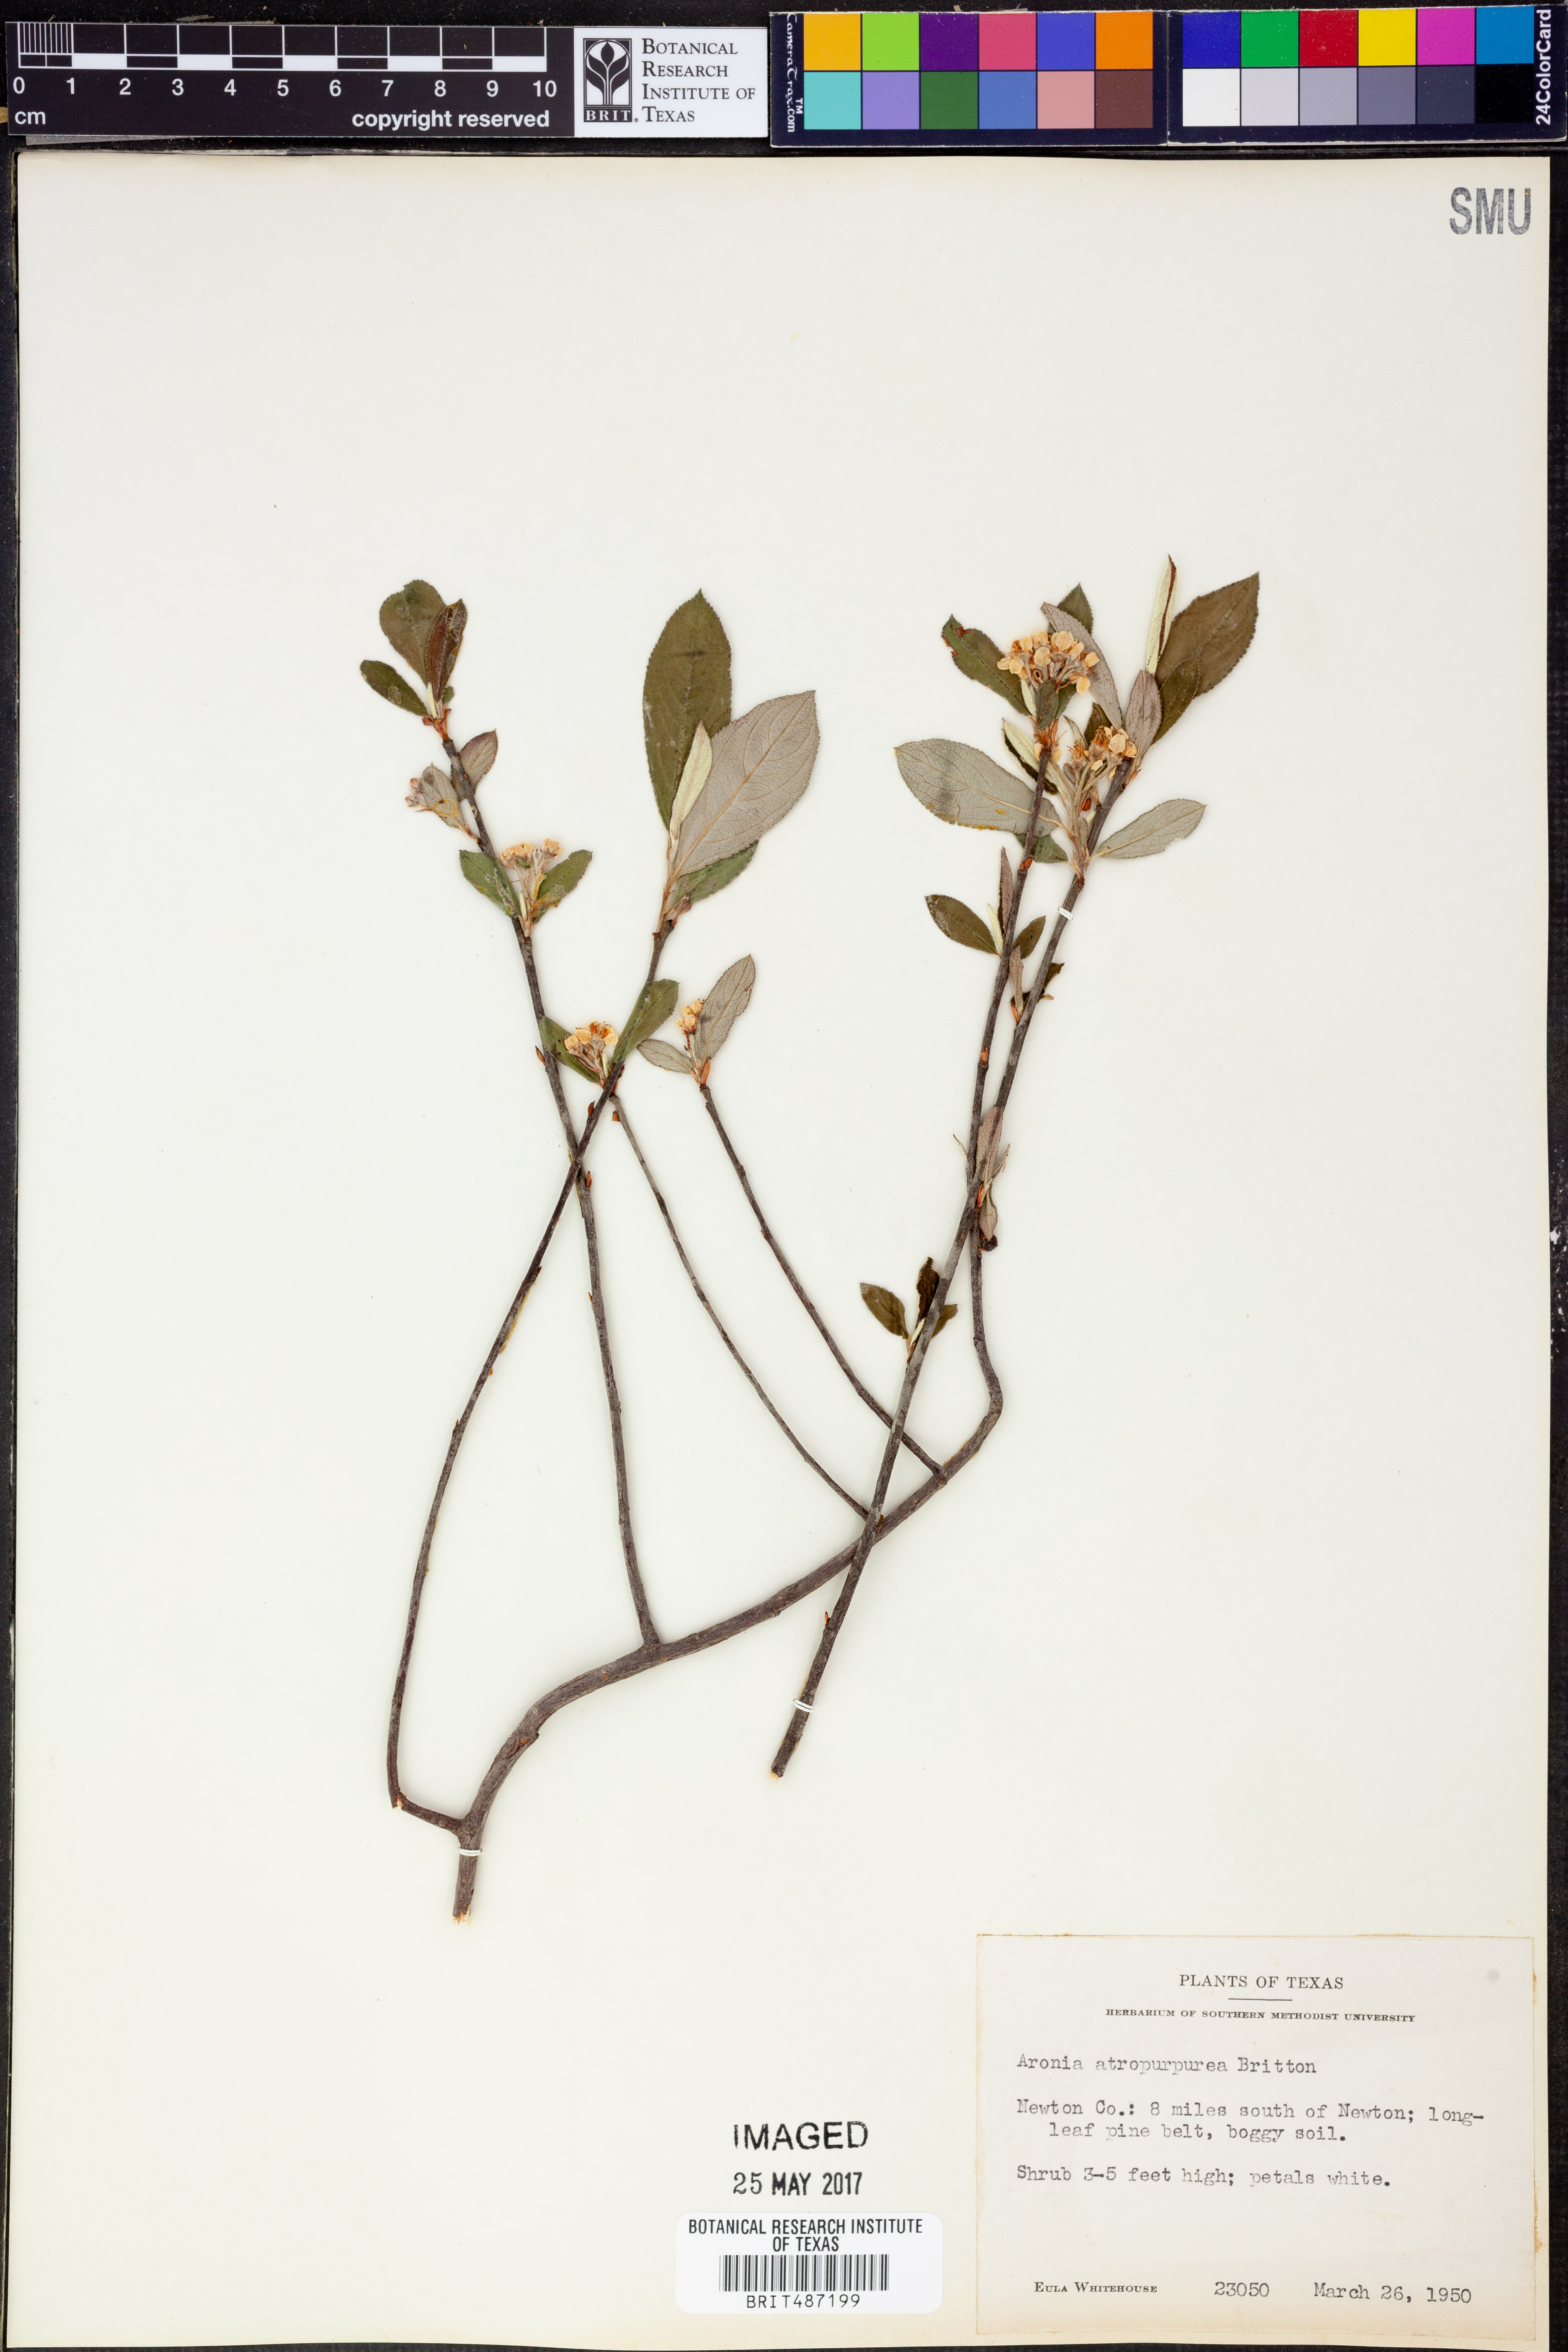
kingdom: Plantae
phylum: Tracheophyta
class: Magnoliopsida
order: Rosales
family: Rosaceae
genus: Aronia
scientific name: Aronia prunifolia
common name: Purple chokeberry
